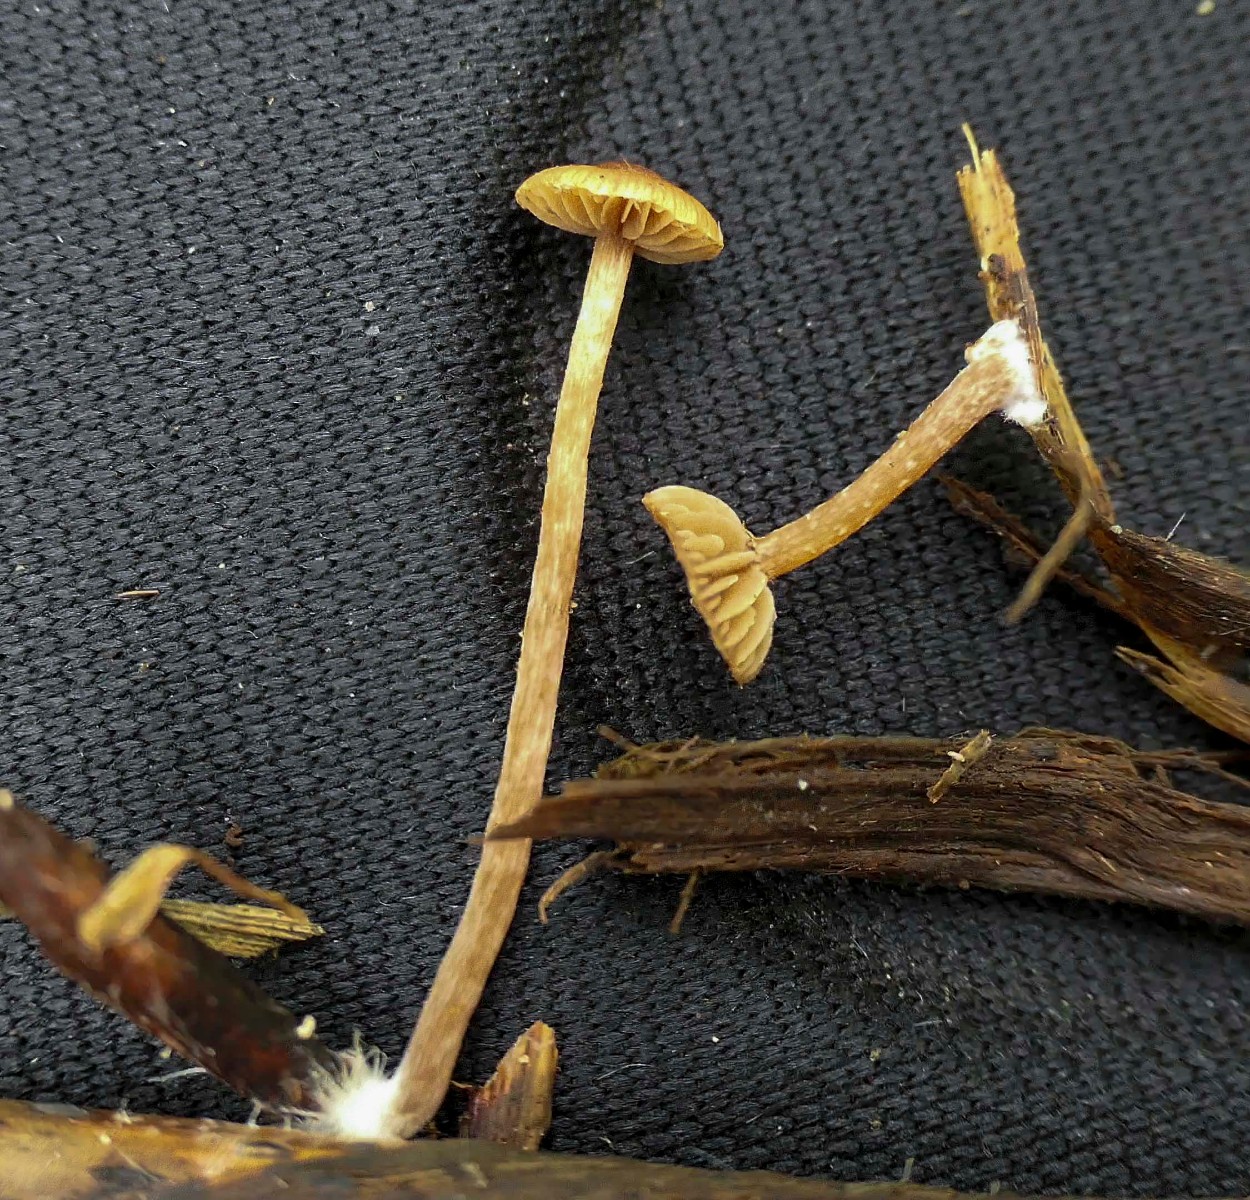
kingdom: Fungi
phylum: Basidiomycota
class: Agaricomycetes
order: Agaricales
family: Strophariaceae
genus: Deconica
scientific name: Deconica inquilina
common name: græs-stråhat
